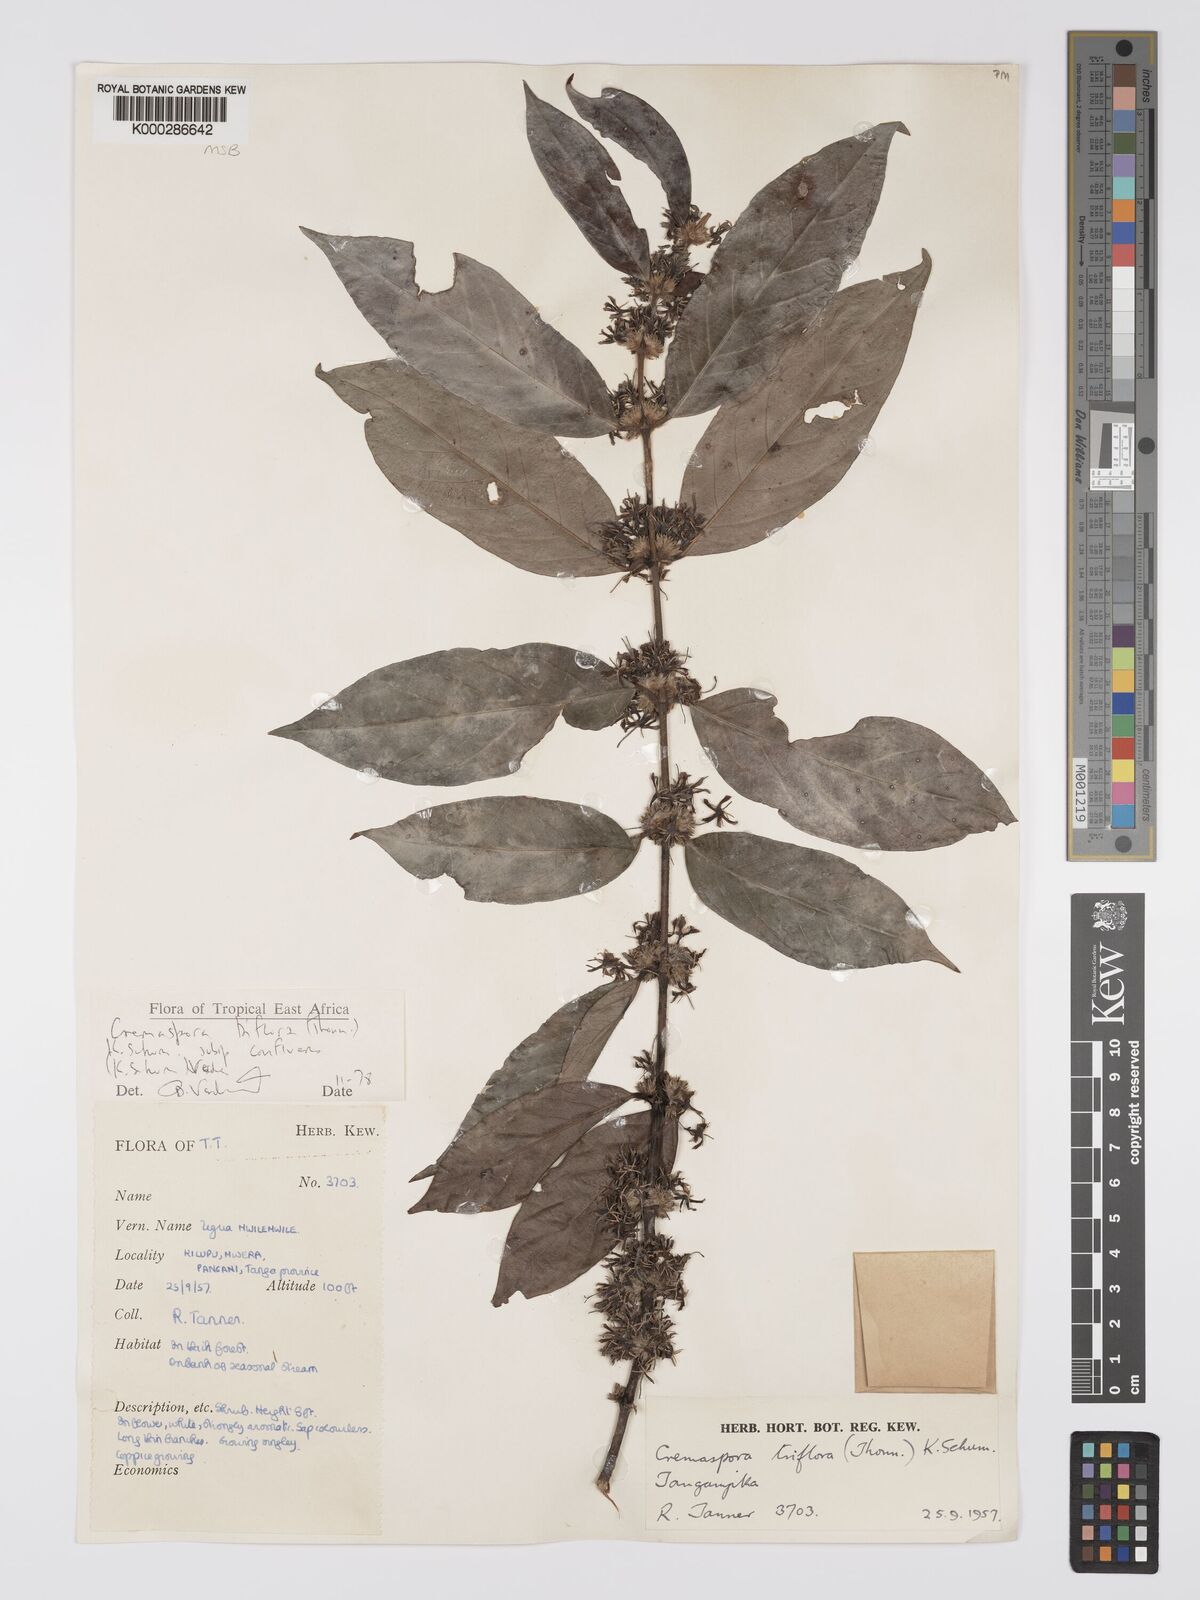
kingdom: Plantae
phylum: Tracheophyta
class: Magnoliopsida
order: Gentianales
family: Rubiaceae
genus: Cremaspora
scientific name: Cremaspora triflora
